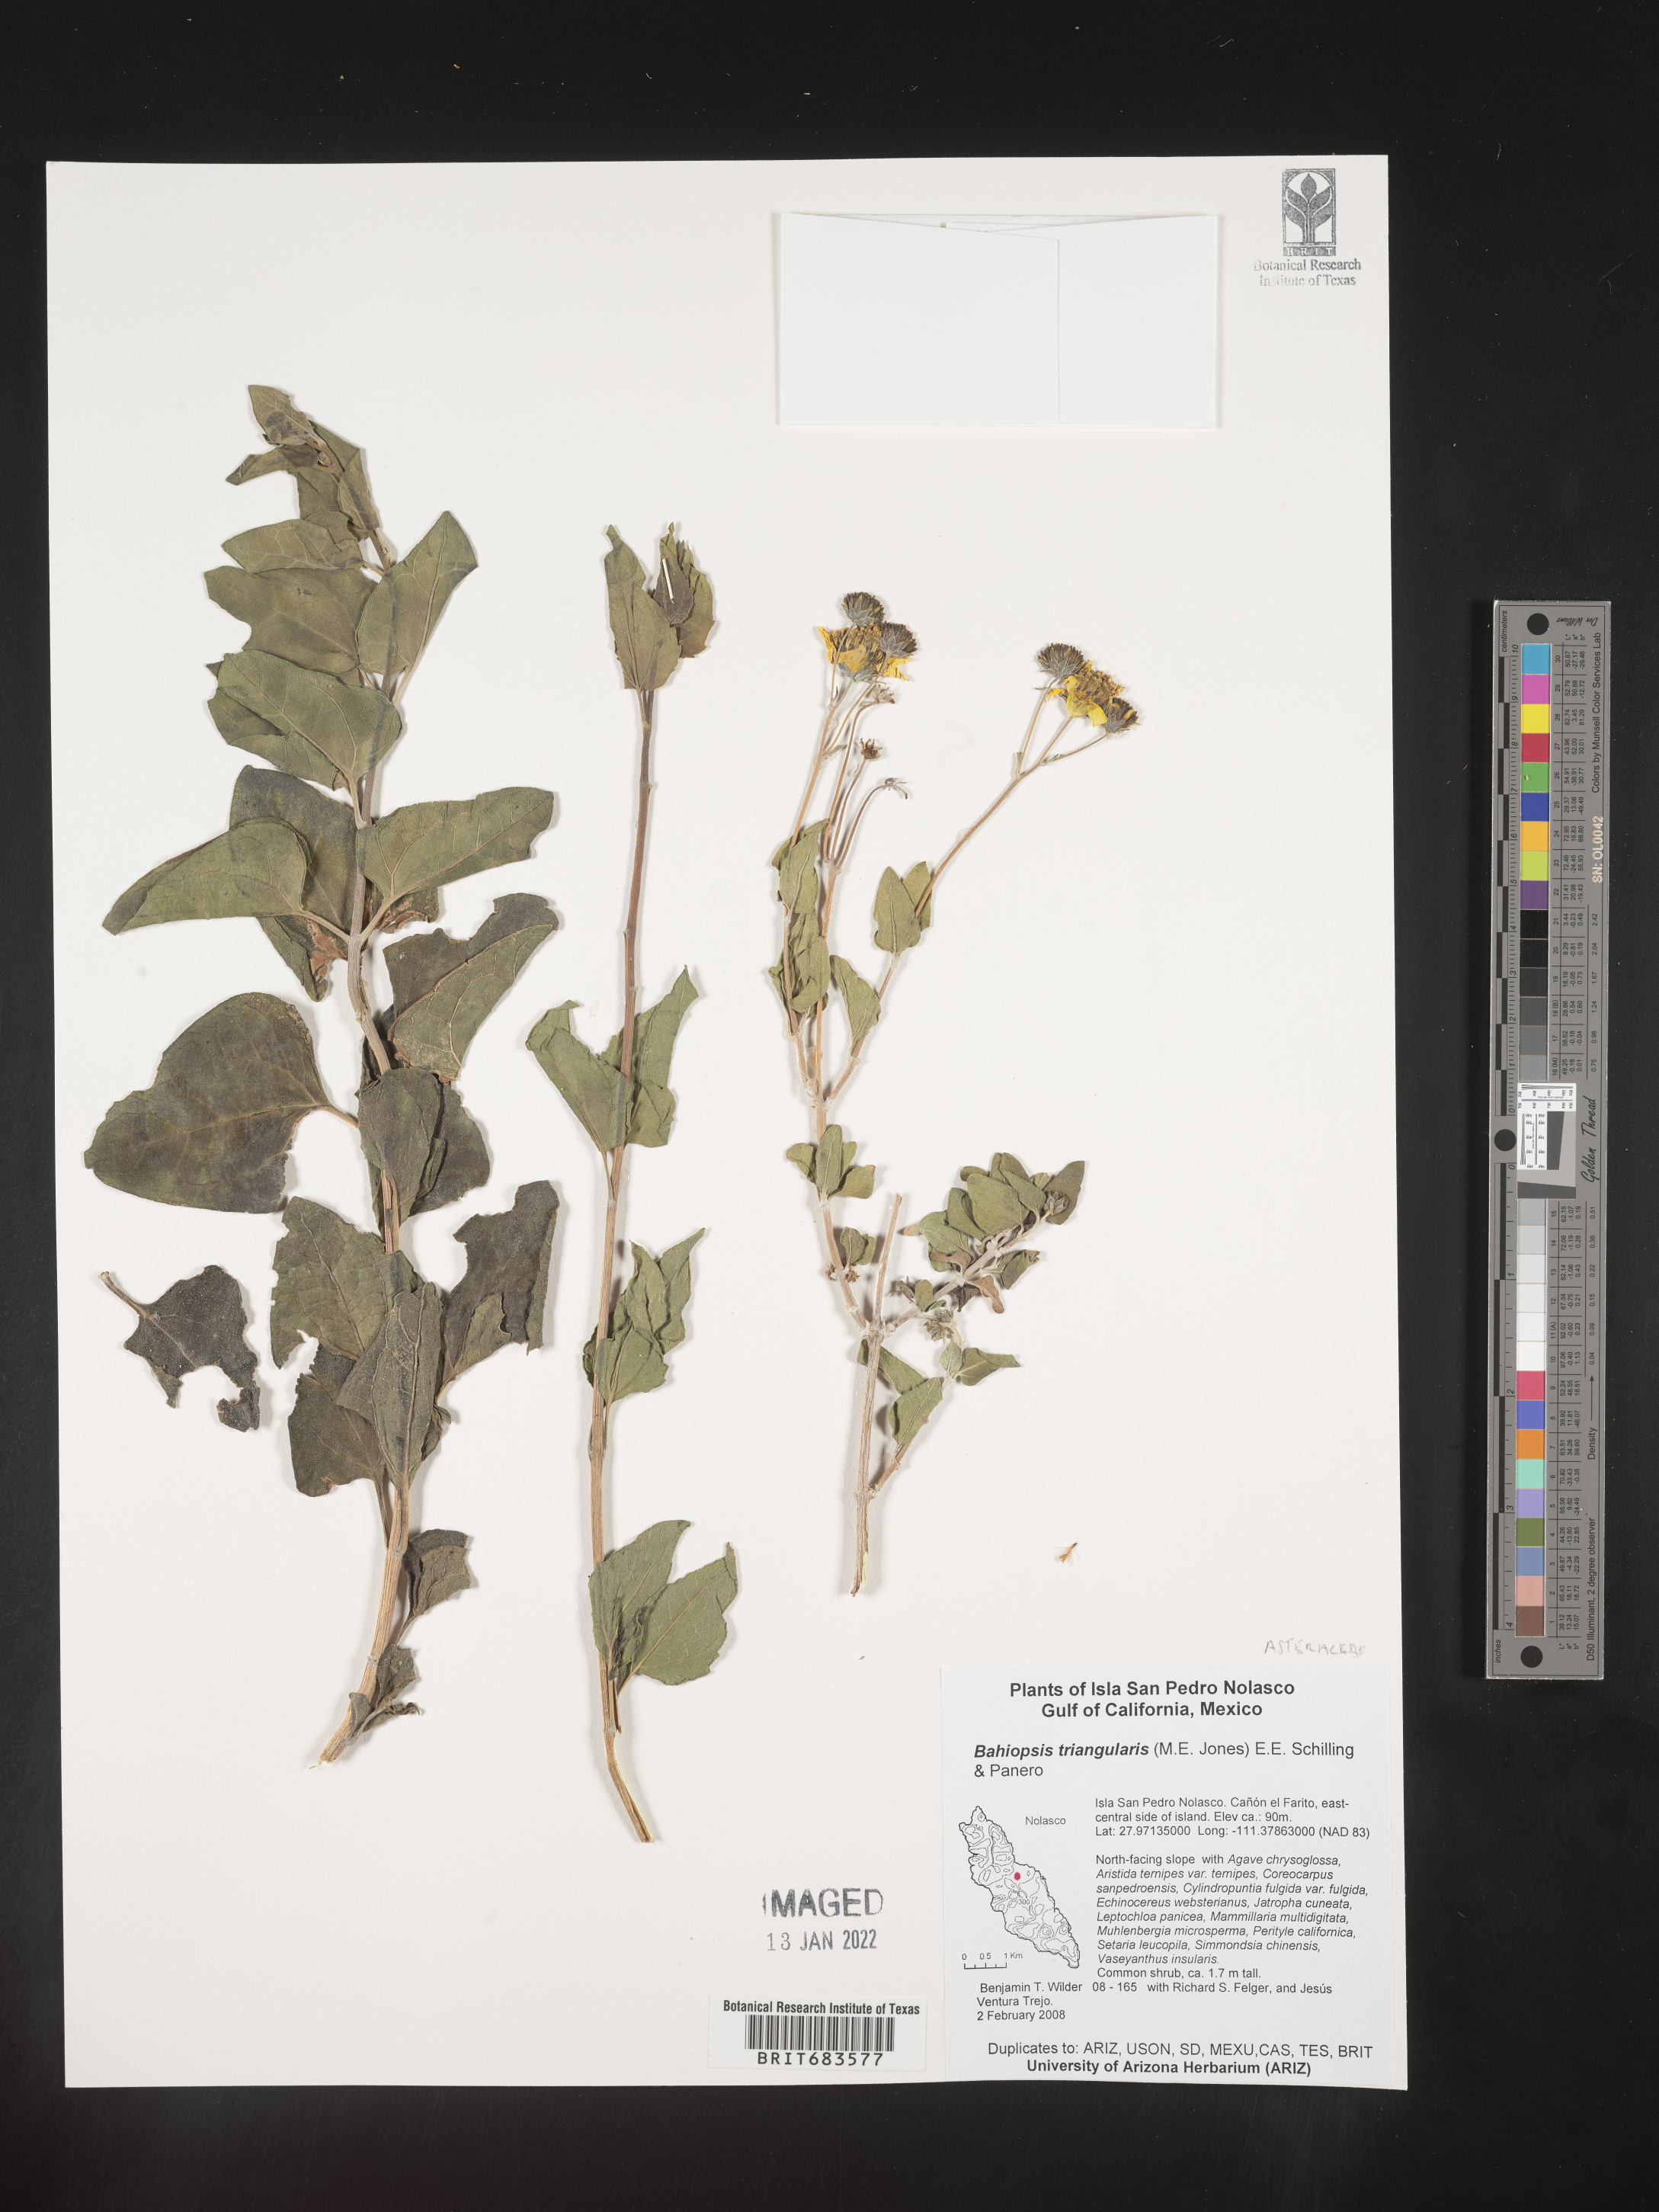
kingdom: Plantae
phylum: Tracheophyta
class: Magnoliopsida
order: Asterales
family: Asteraceae
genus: Bahiopsis
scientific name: Bahiopsis
